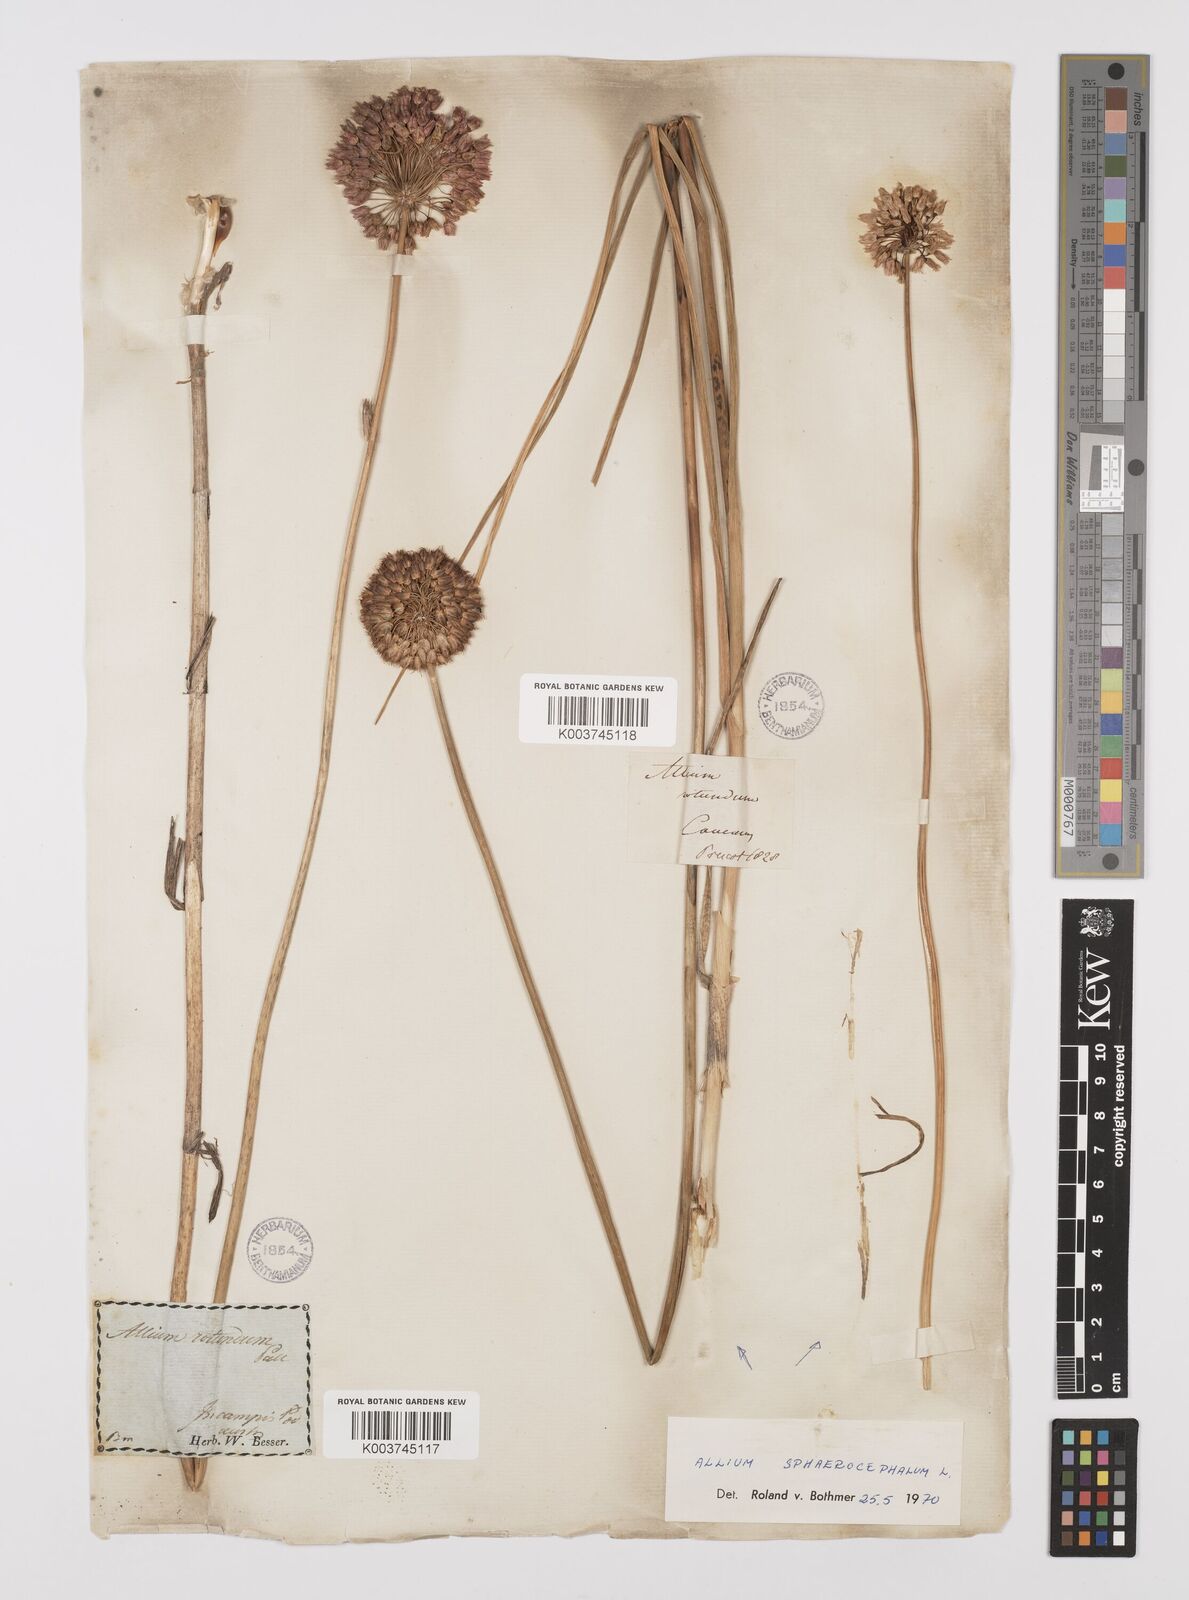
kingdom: Plantae
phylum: Tracheophyta
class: Liliopsida
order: Asparagales
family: Amaryllidaceae
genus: Allium
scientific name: Allium vineale
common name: Crow garlic
